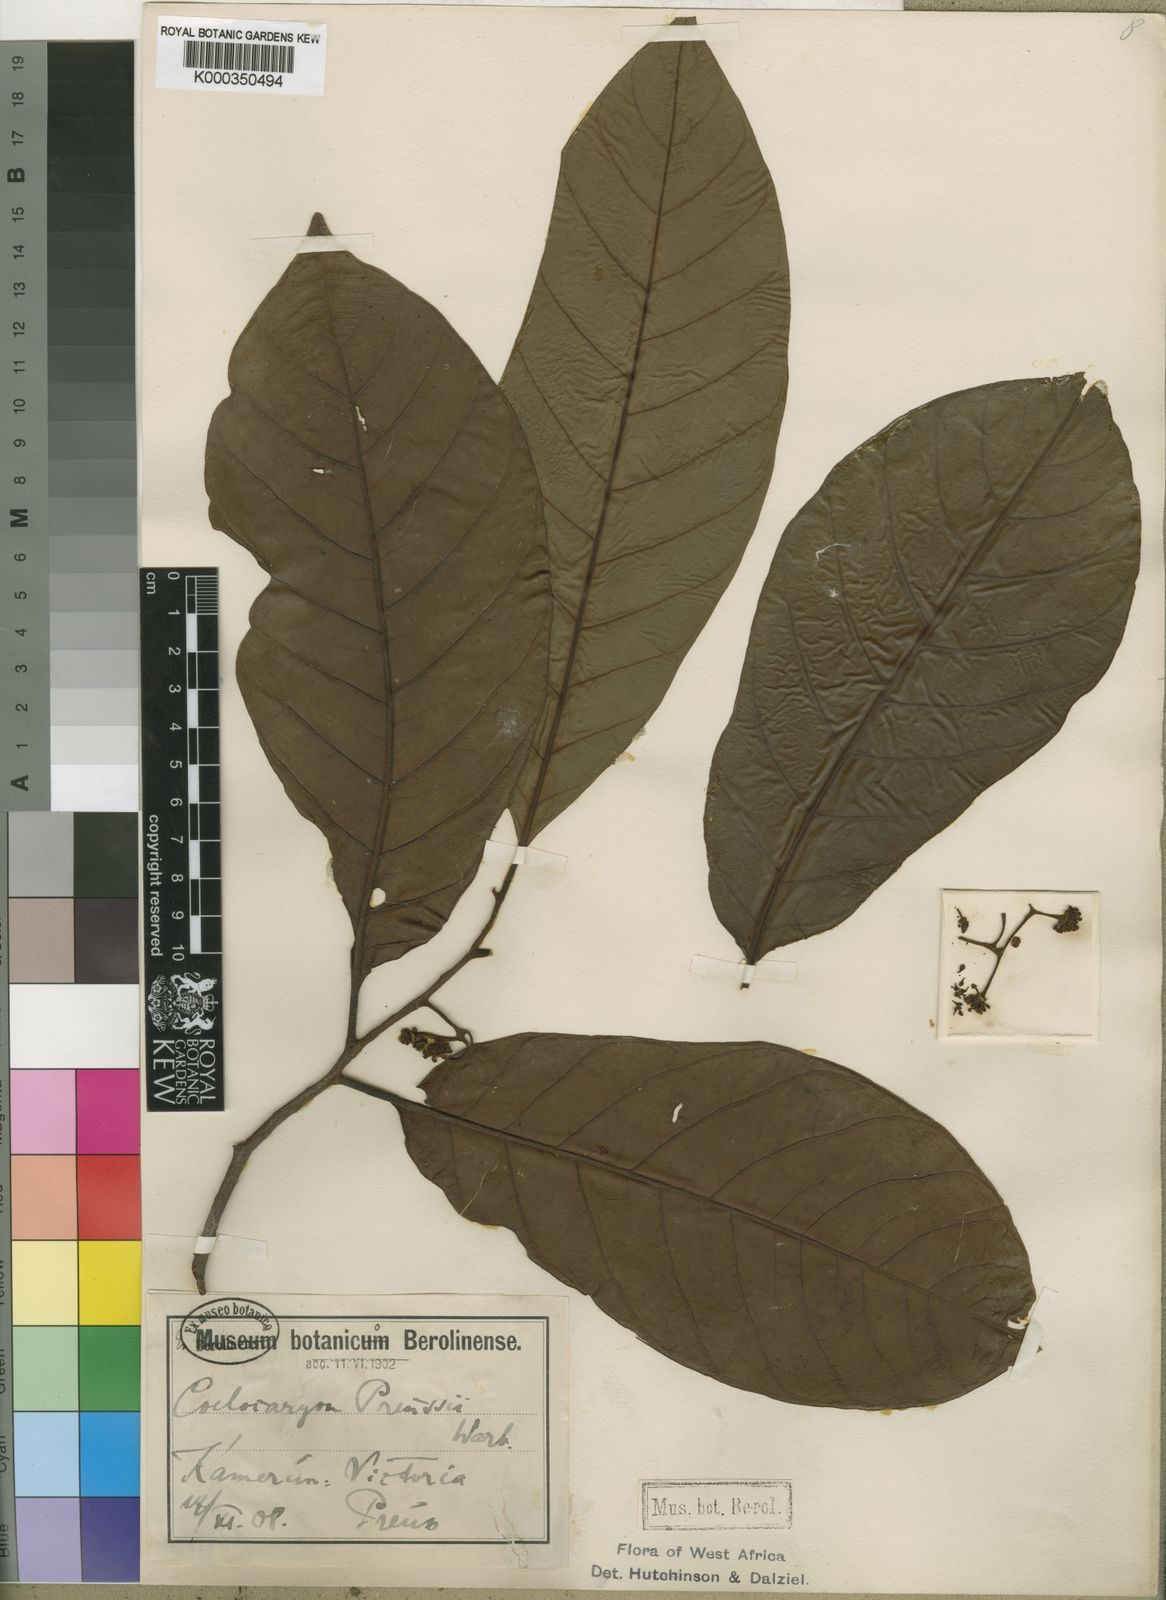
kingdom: Plantae
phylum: Tracheophyta
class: Magnoliopsida
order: Magnoliales
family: Myristicaceae
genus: Coelocaryon
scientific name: Coelocaryon preussii
